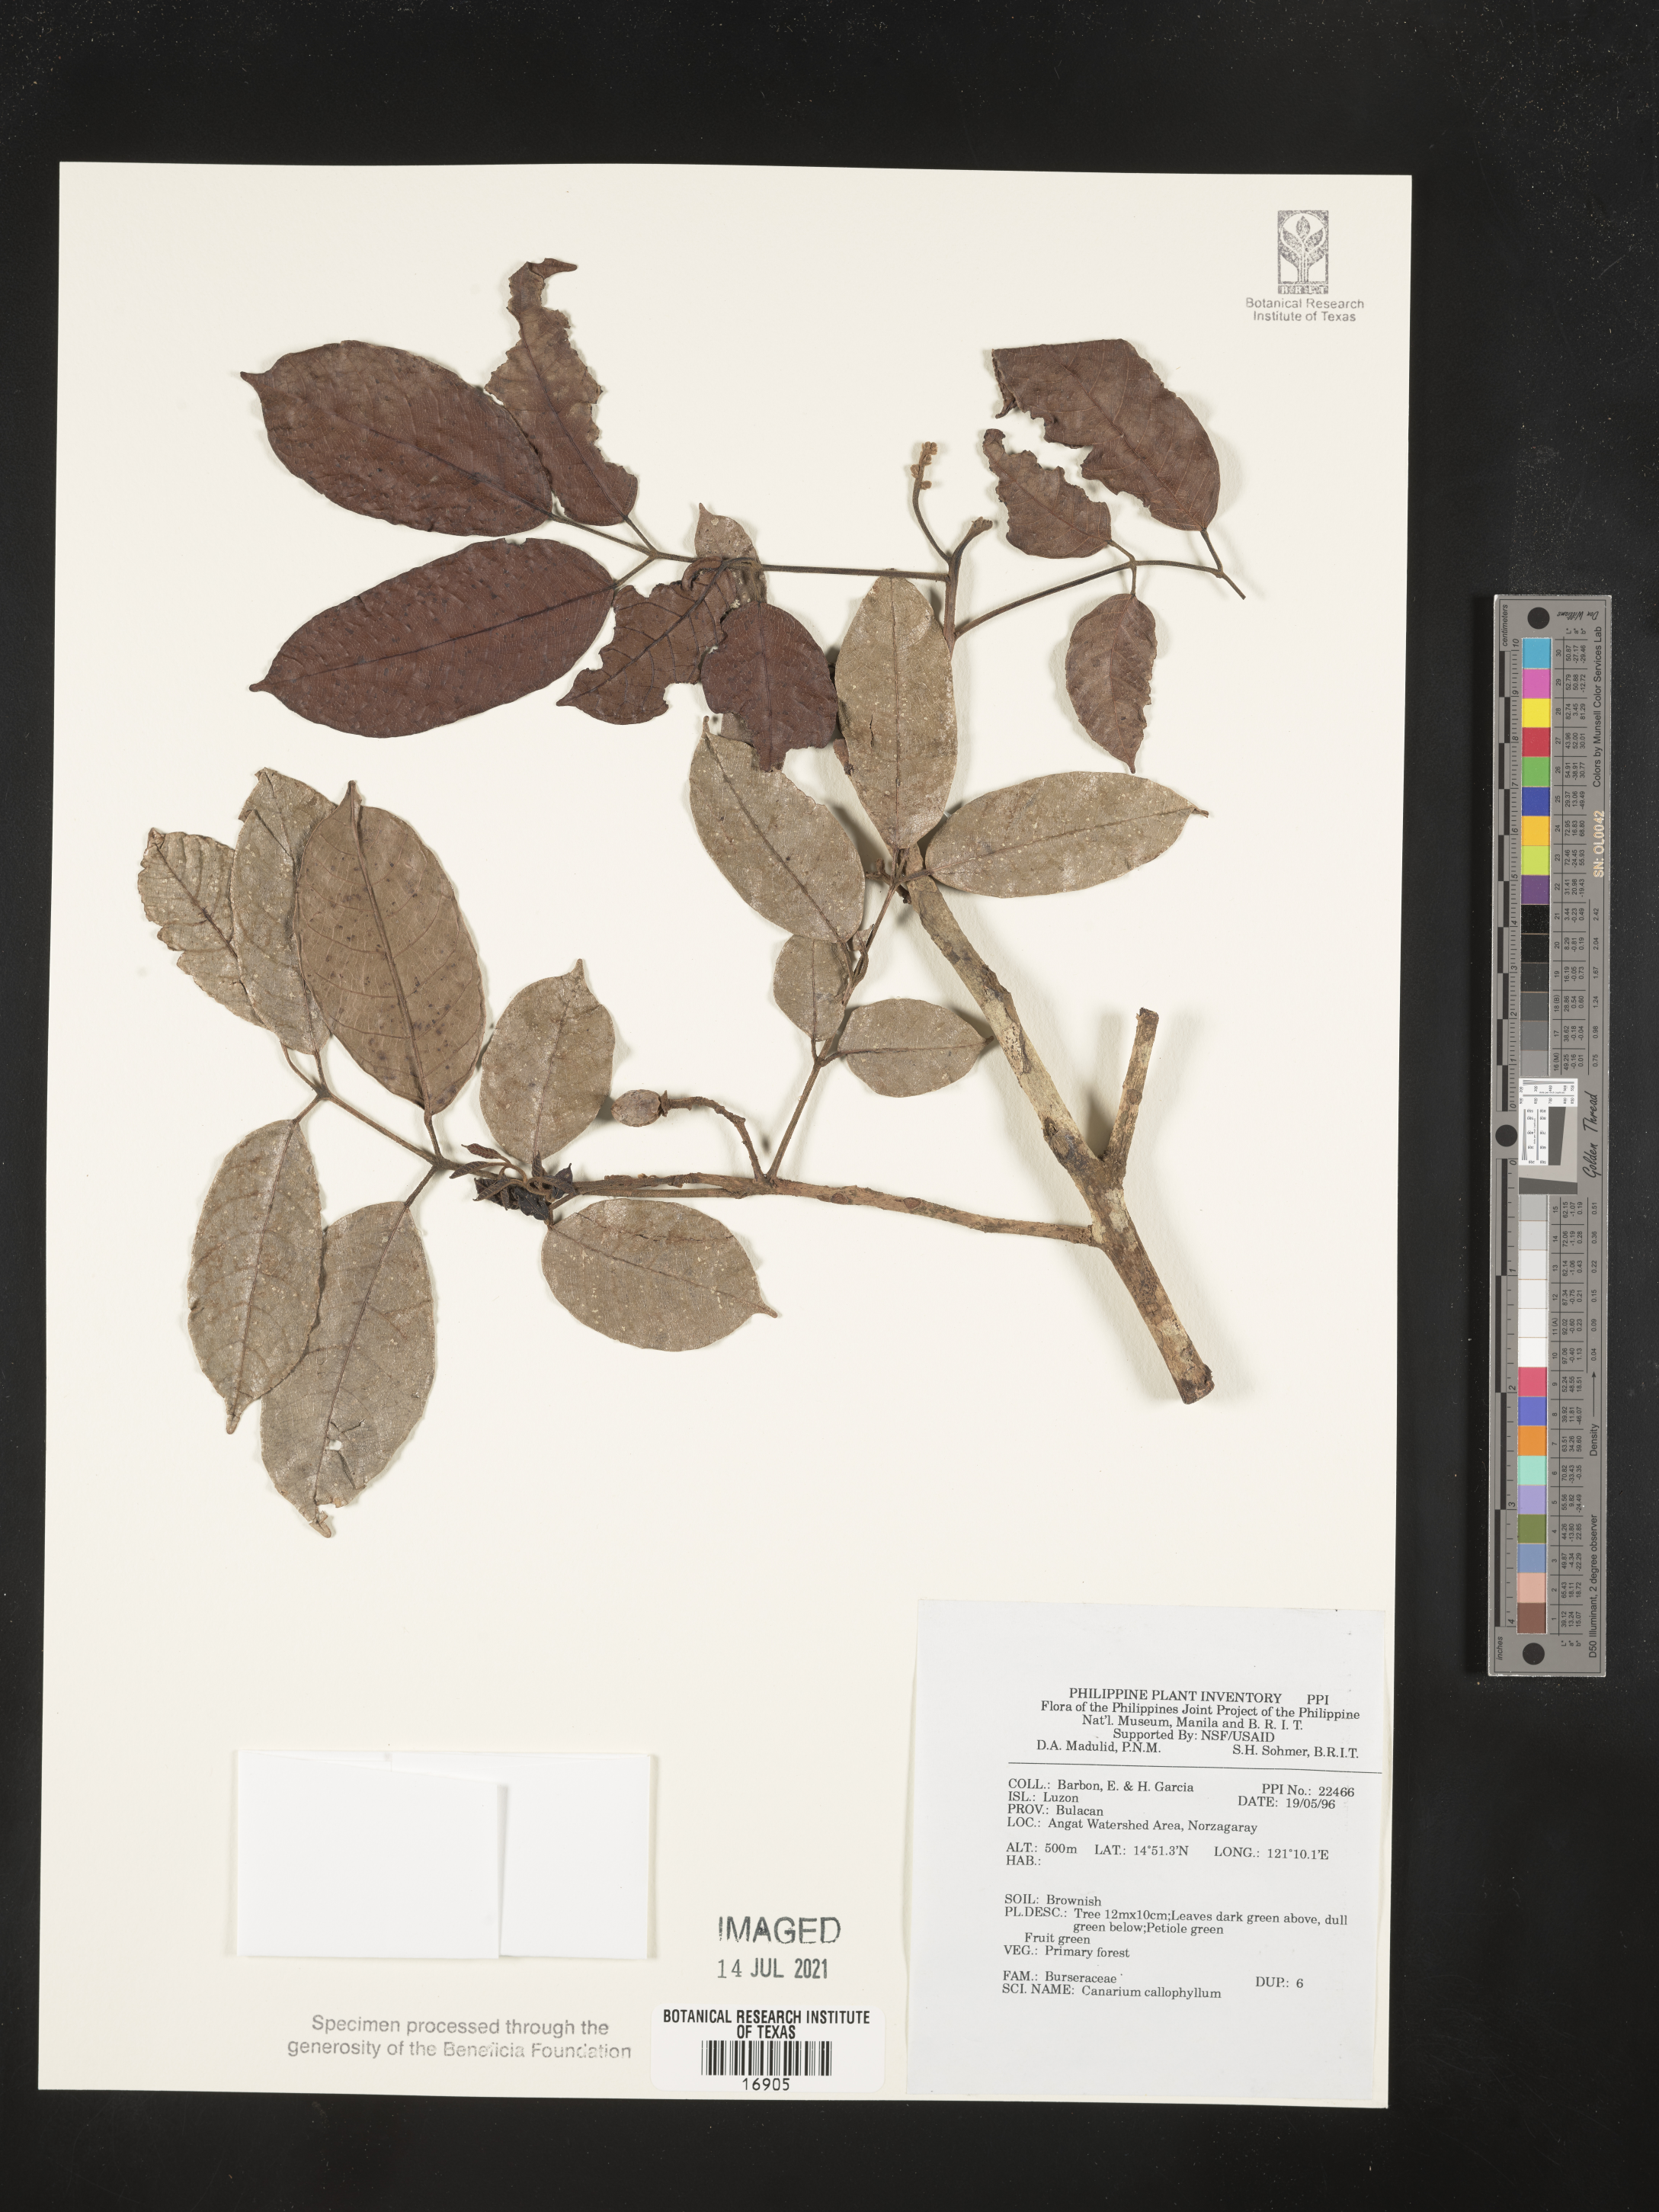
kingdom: Plantae
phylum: Tracheophyta
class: Magnoliopsida
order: Sapindales
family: Burseraceae
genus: Canarium
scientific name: Canarium asperum
